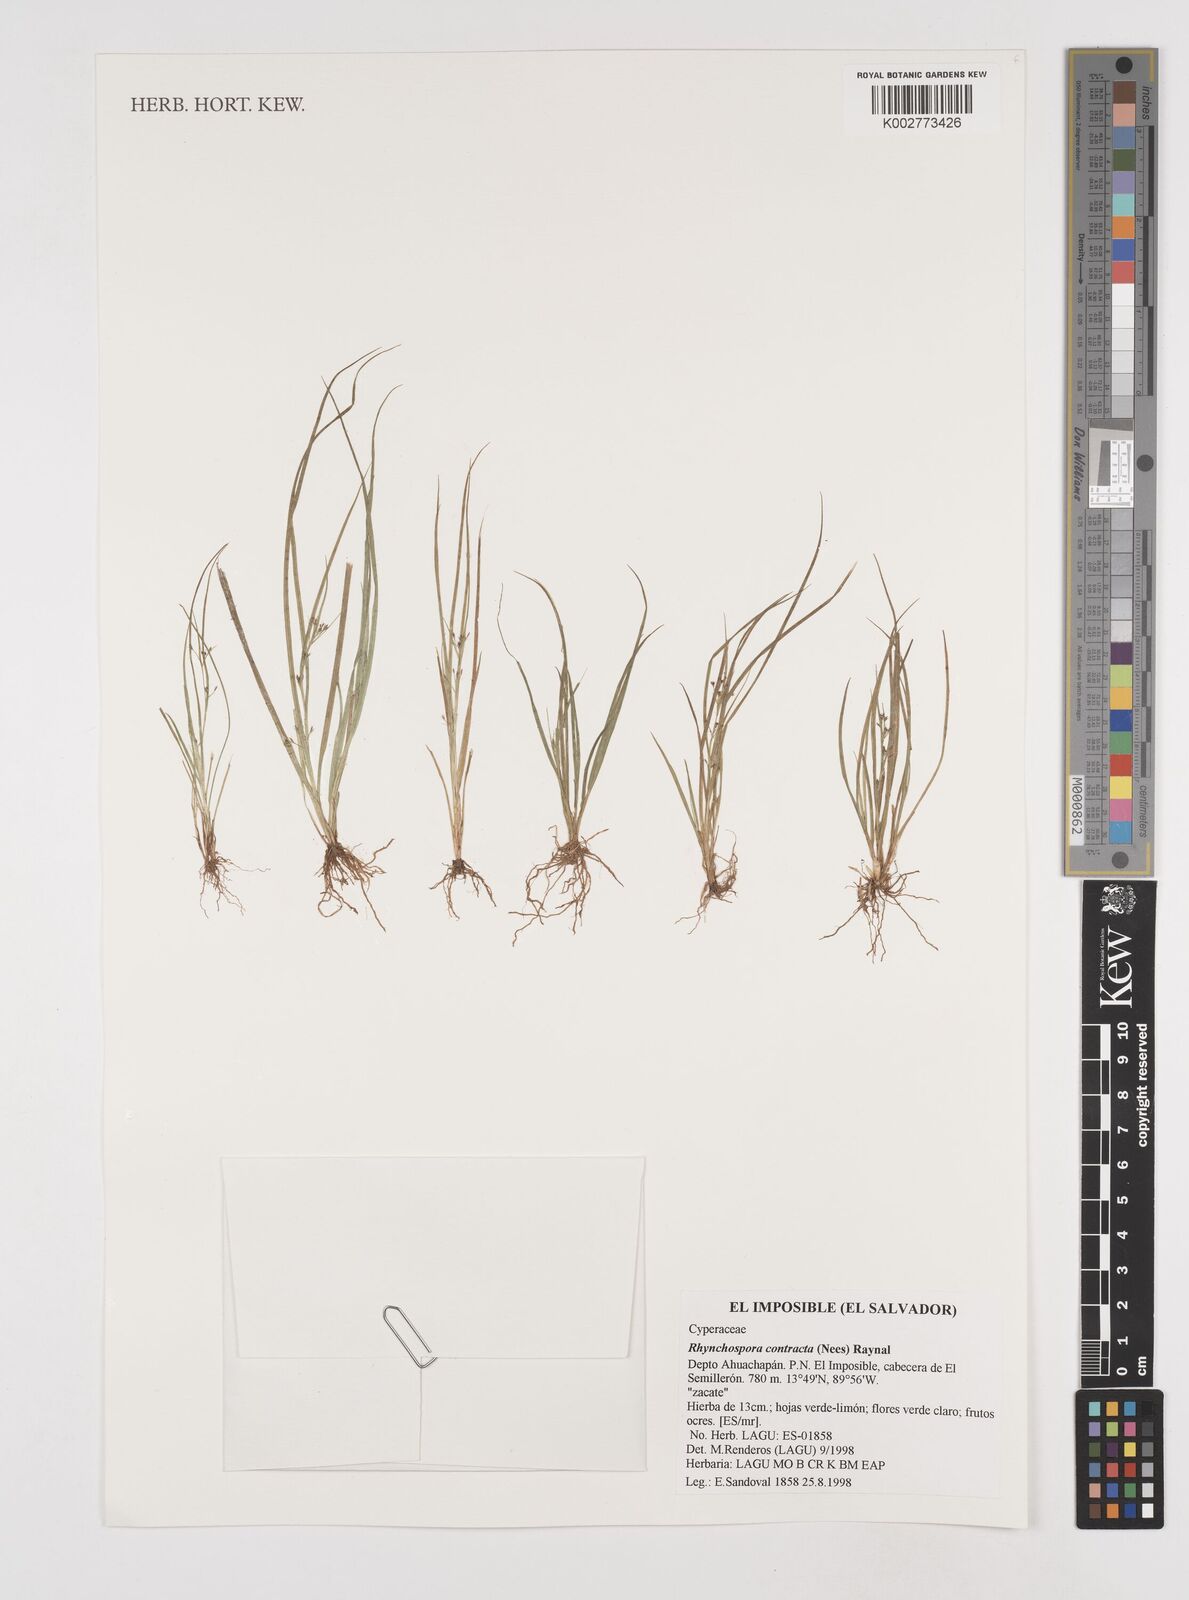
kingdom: Plantae
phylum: Tracheophyta
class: Liliopsida
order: Poales
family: Cyperaceae
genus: Rhynchospora
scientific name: Rhynchospora intermixta
